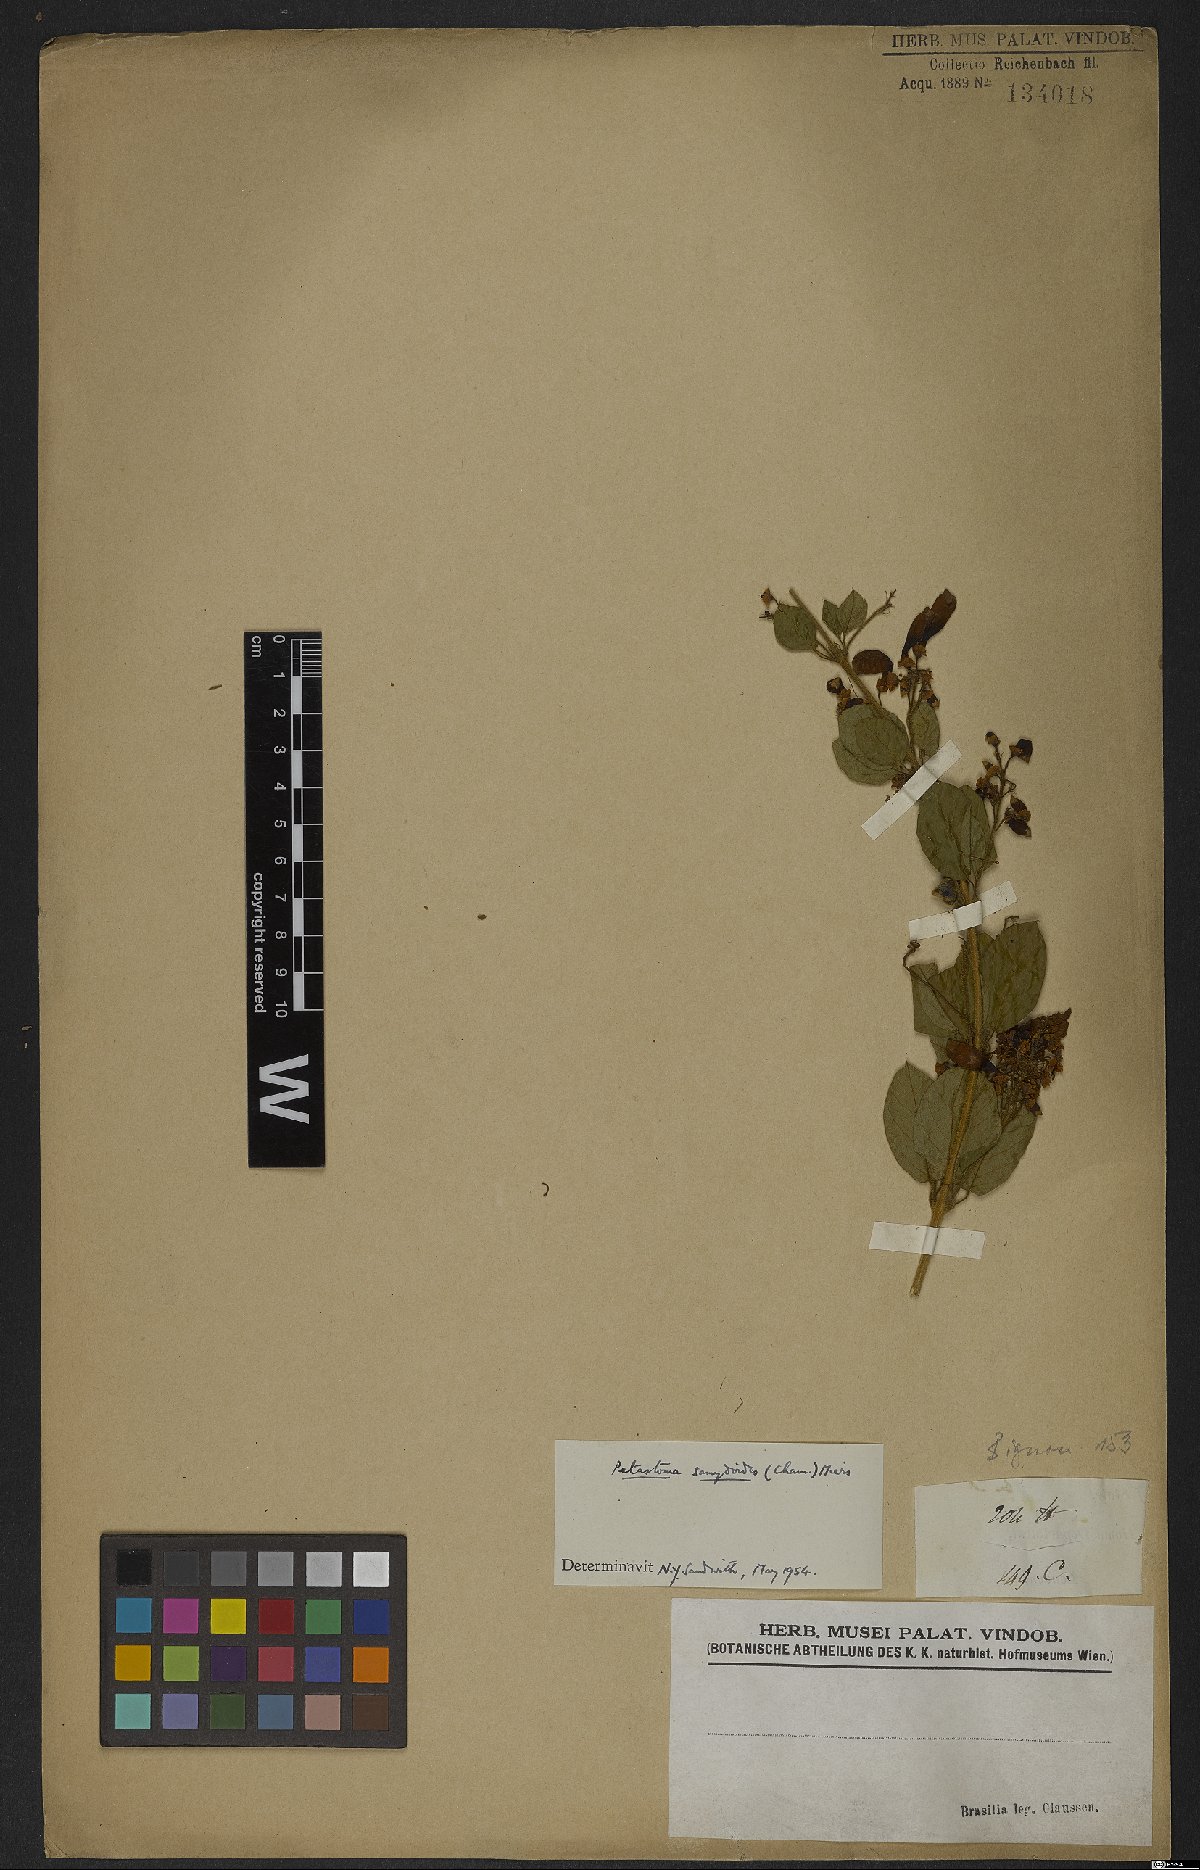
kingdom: Plantae
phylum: Tracheophyta
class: Magnoliopsida
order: Lamiales
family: Bignoniaceae
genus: Fridericia
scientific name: Fridericia samydoides
